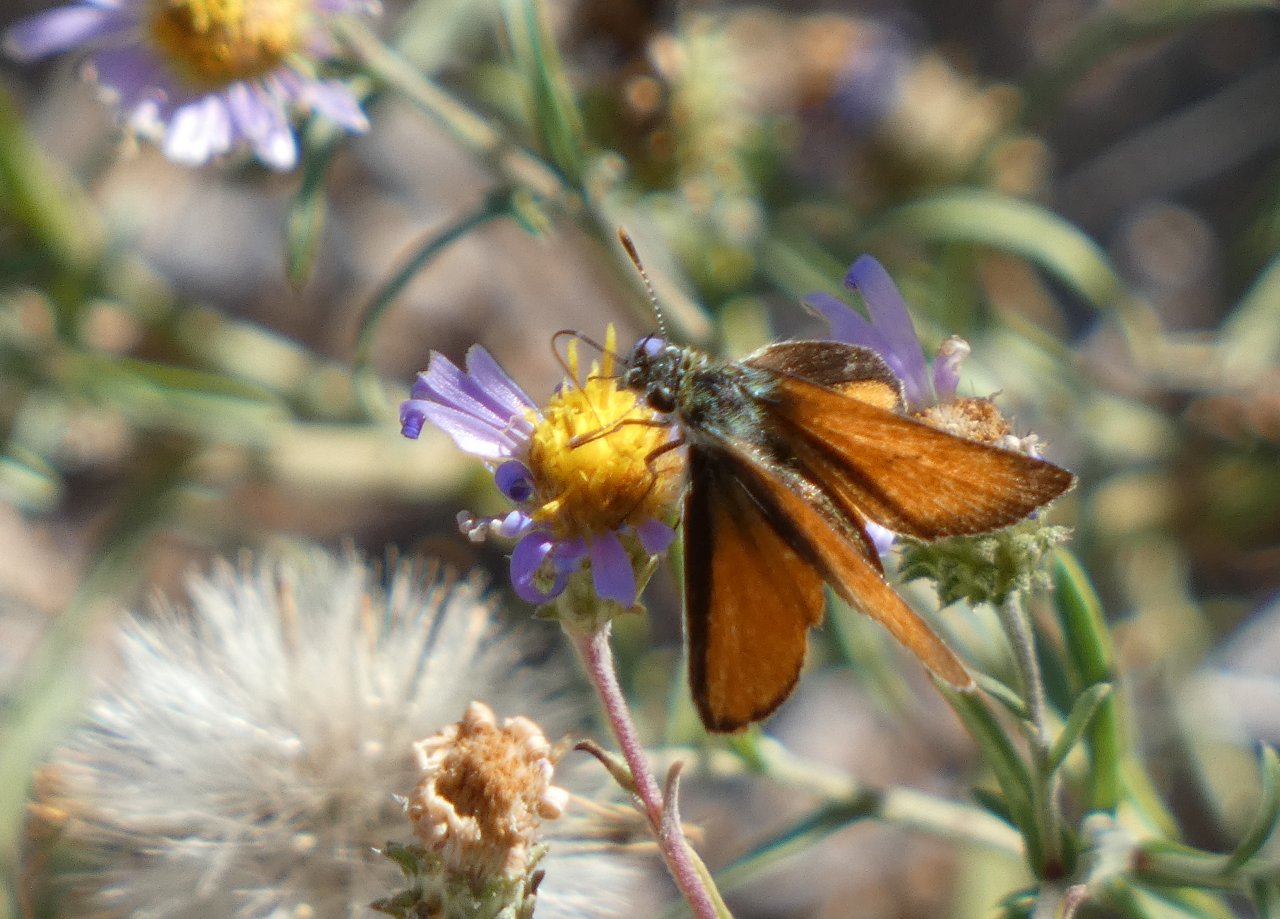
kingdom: Animalia
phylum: Arthropoda
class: Insecta
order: Lepidoptera
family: Hesperiidae
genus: Ancyloxypha
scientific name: Ancyloxypha arene
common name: Tropical Least Skipper
